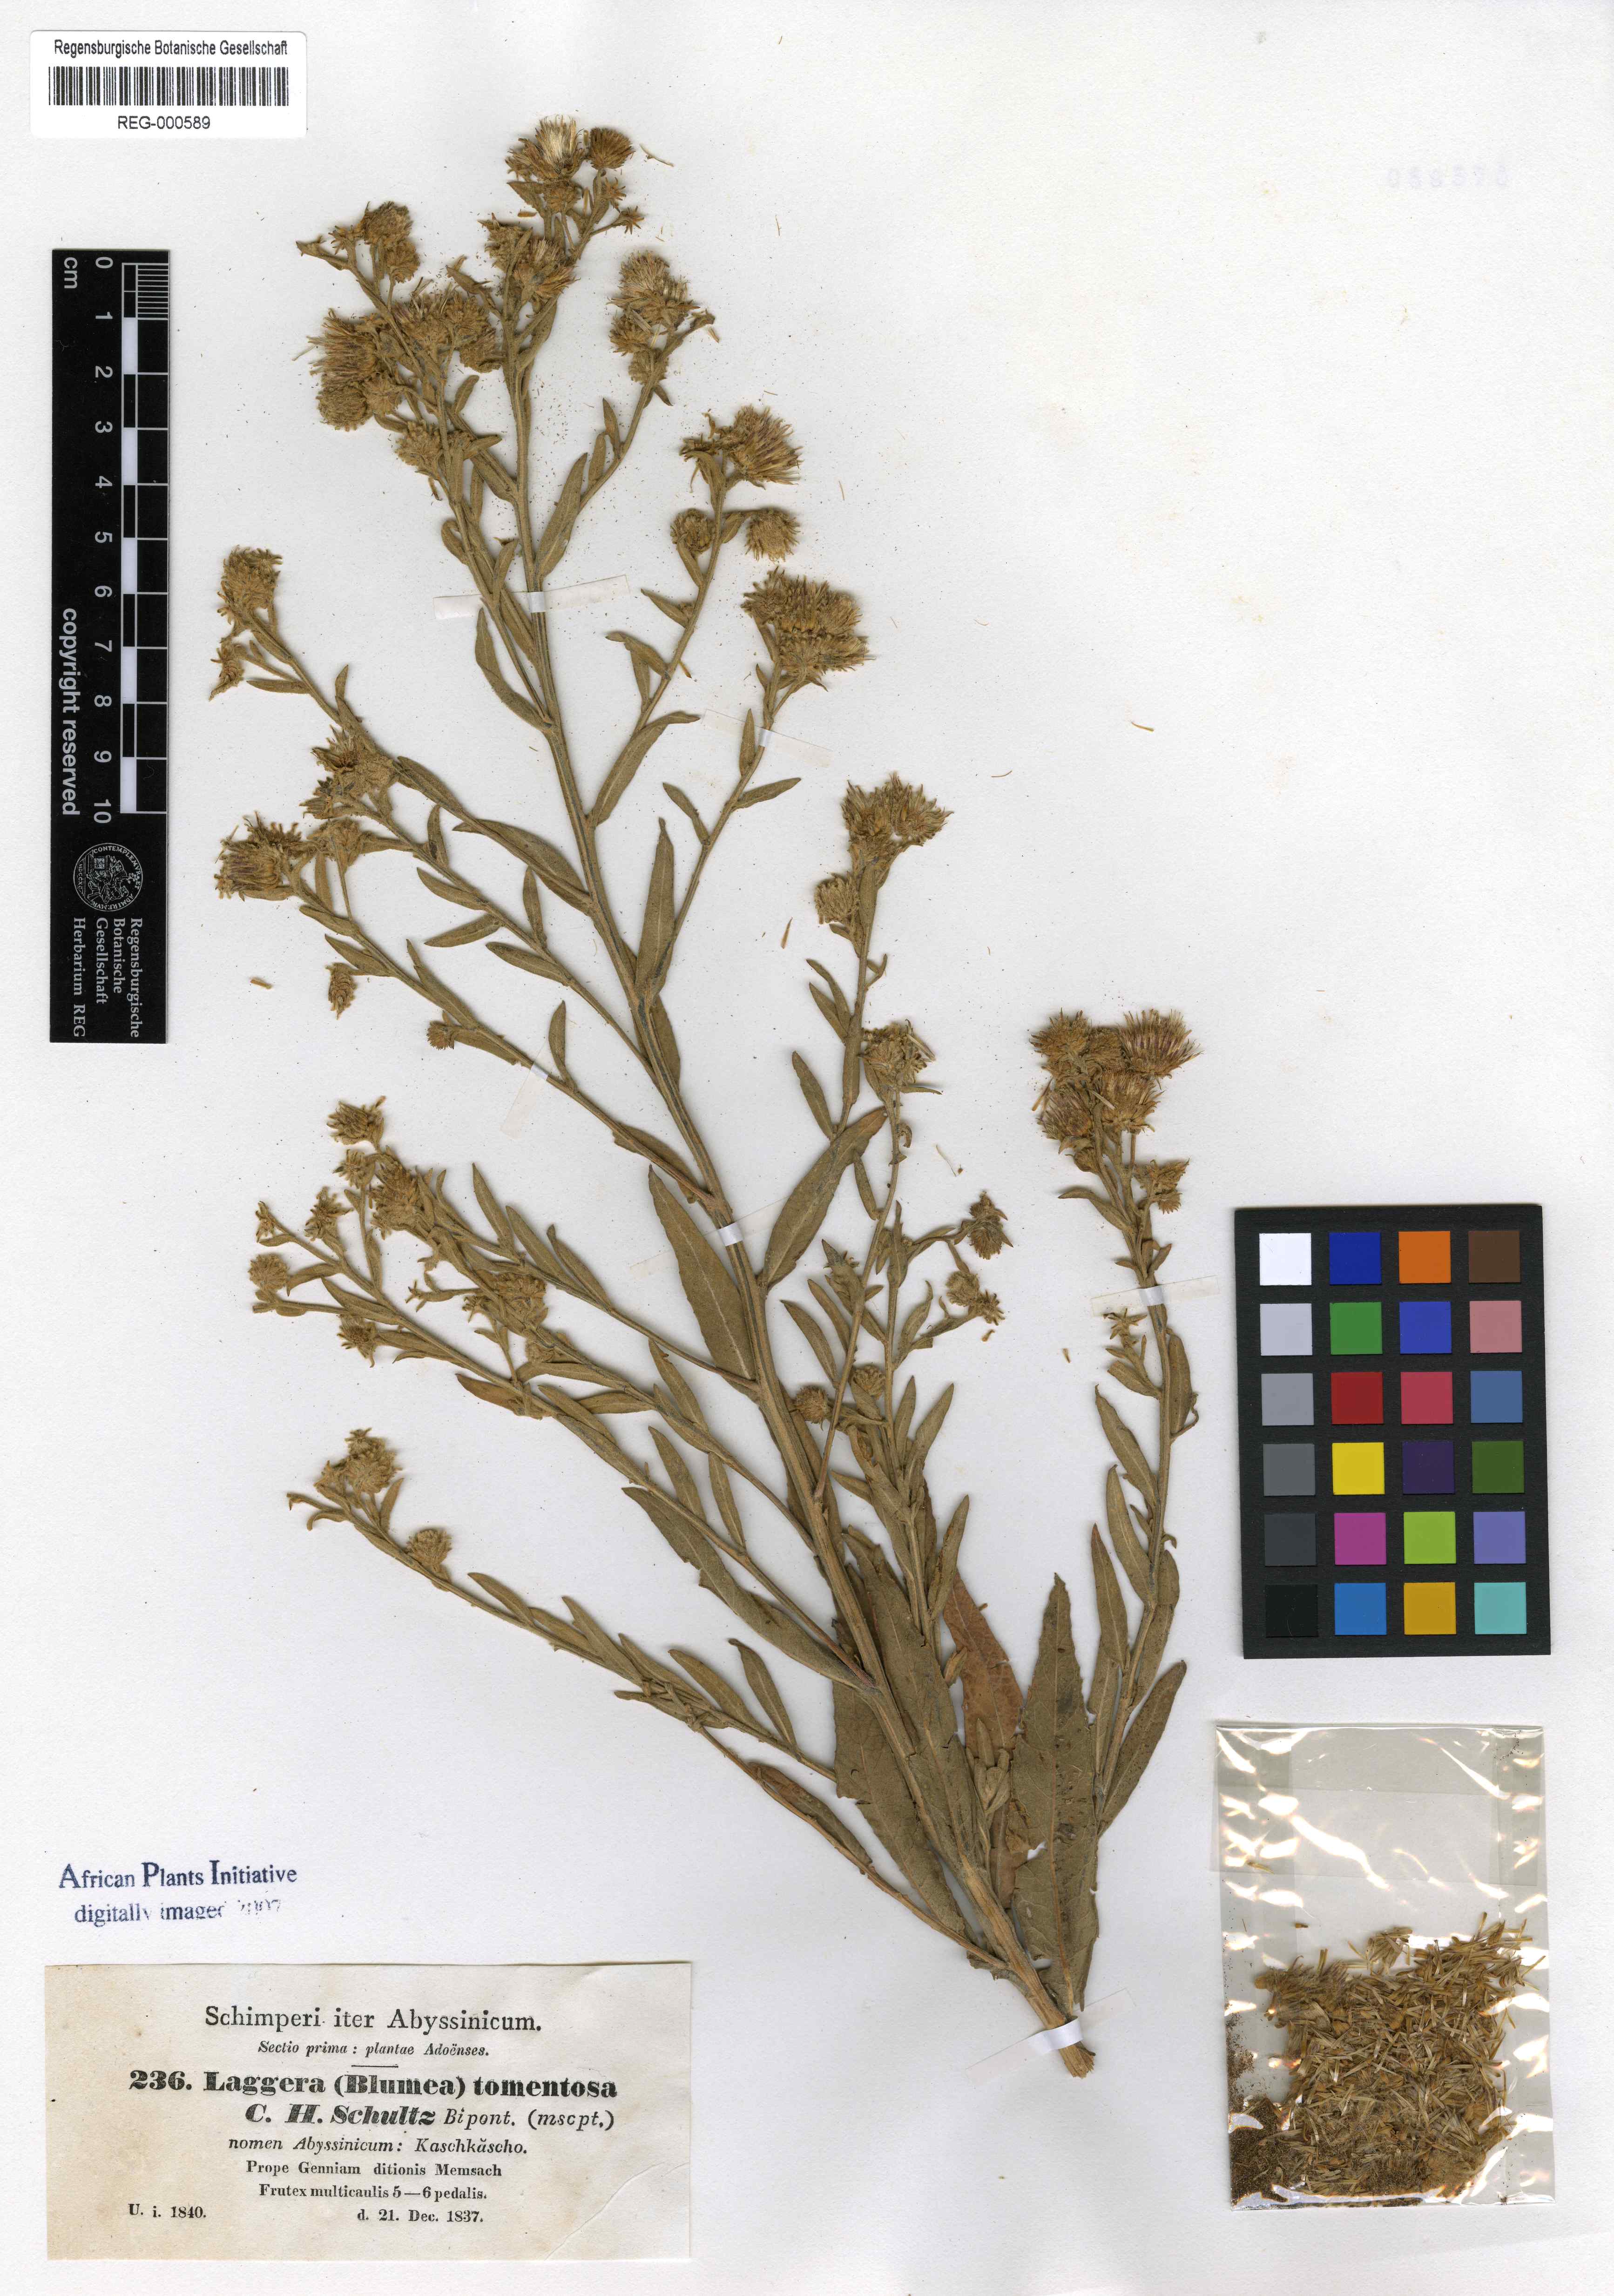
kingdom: Plantae
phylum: Tracheophyta
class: Magnoliopsida
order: Asterales
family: Asteraceae
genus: Laggera
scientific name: Laggera tomentosa
